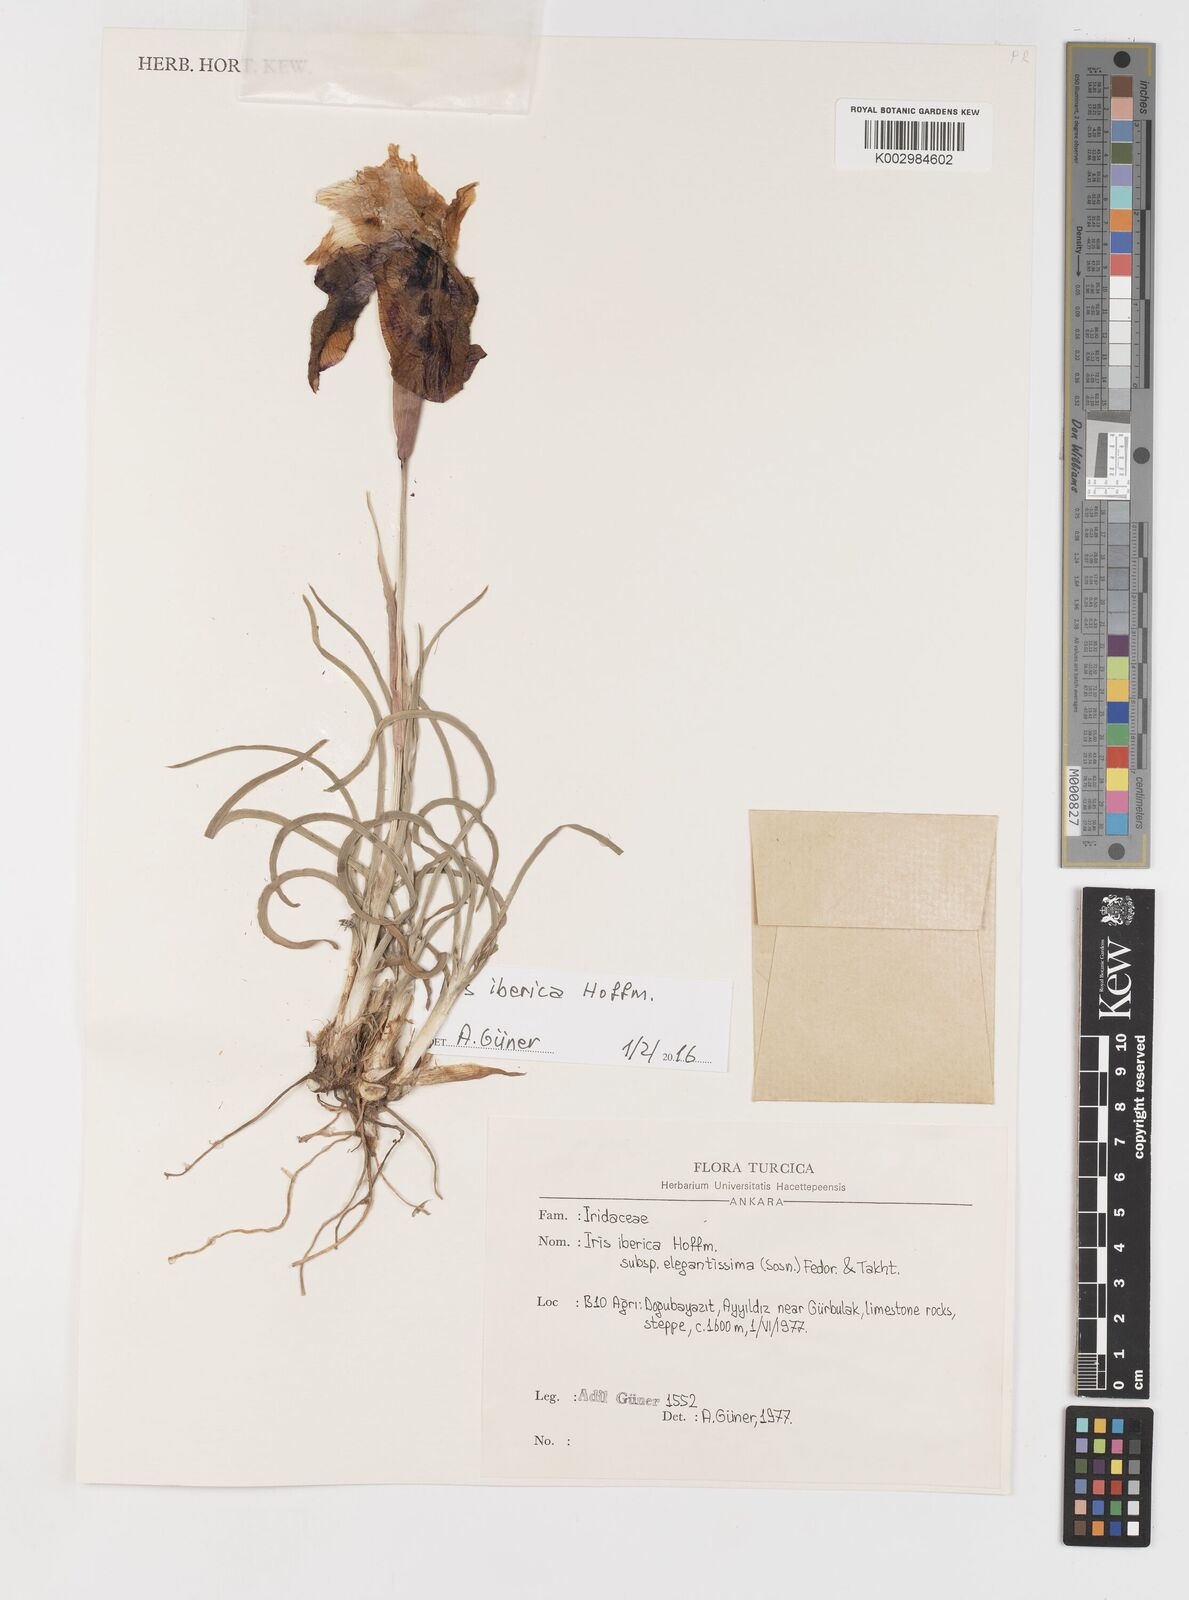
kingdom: Plantae
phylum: Tracheophyta
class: Liliopsida
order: Asparagales
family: Iridaceae
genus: Iris
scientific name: Iris iberica
